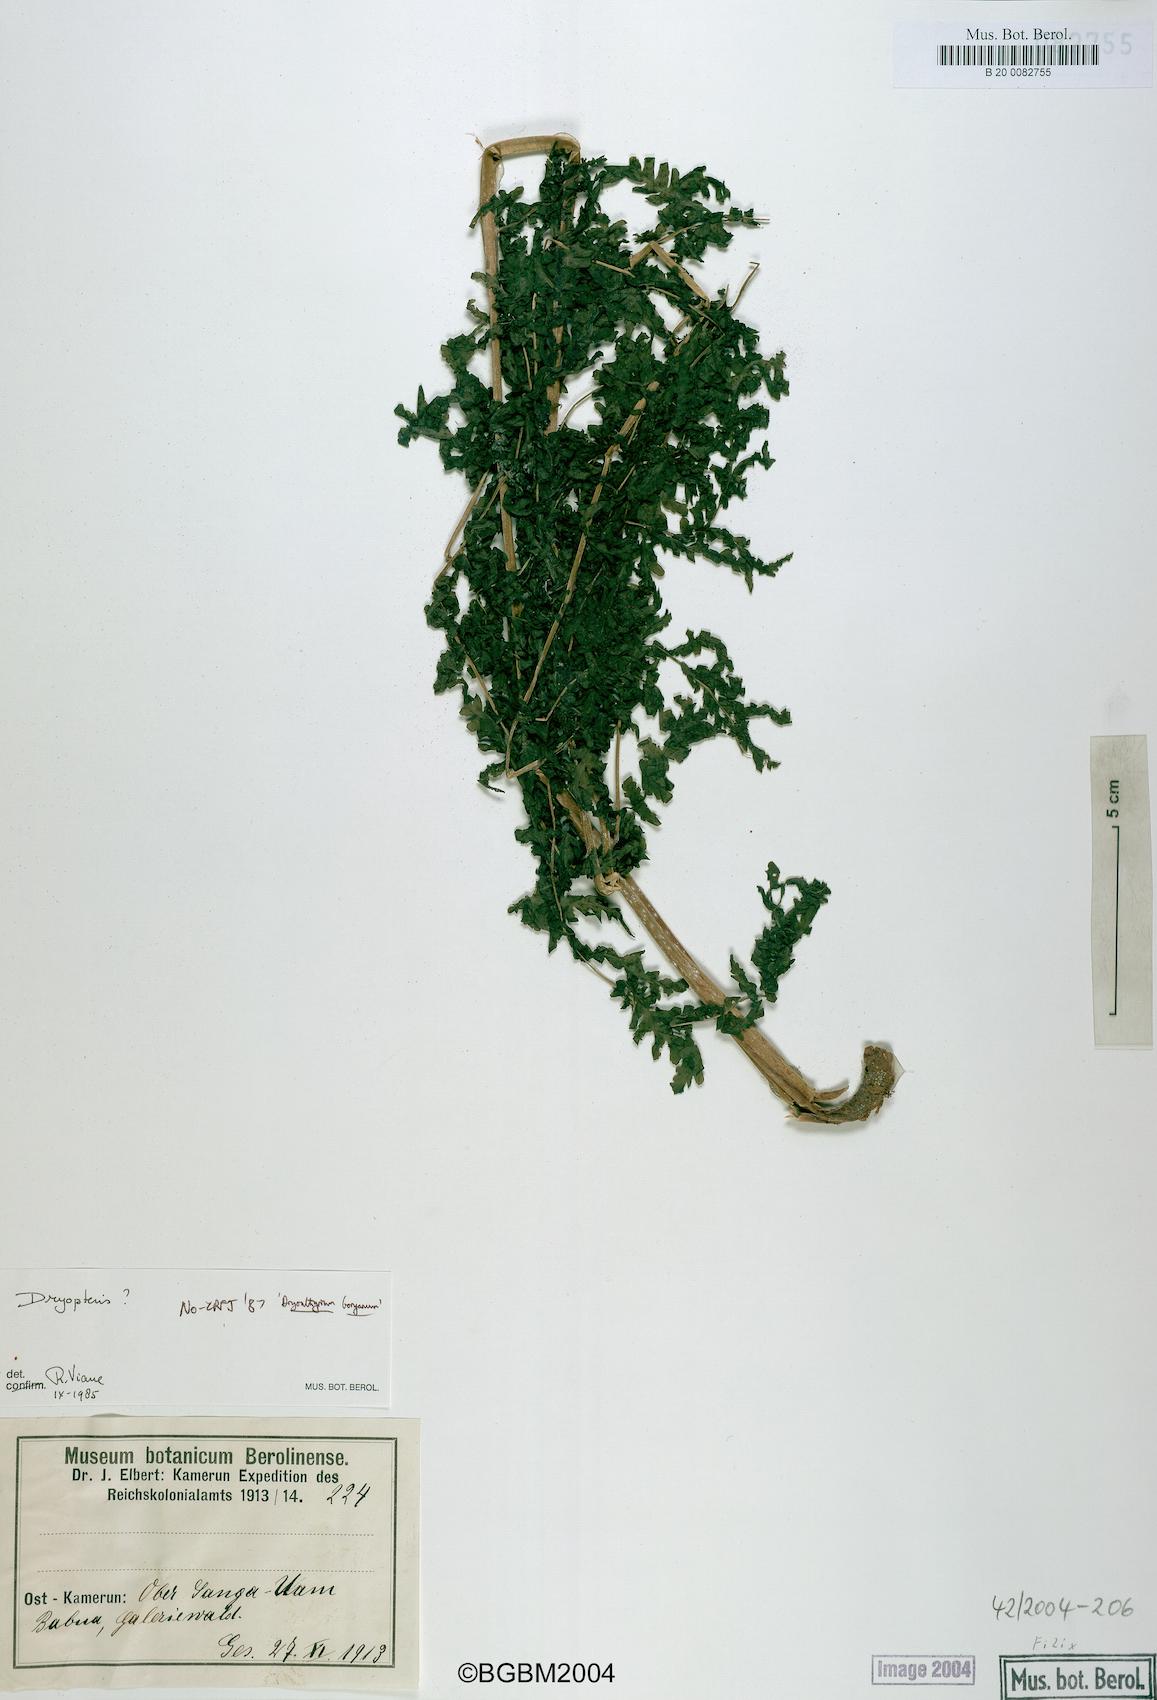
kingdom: Plantae
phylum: Tracheophyta
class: Polypodiopsida
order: Polypodiales
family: Dryopteridaceae
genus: Dryopteris
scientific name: Dryopteris
